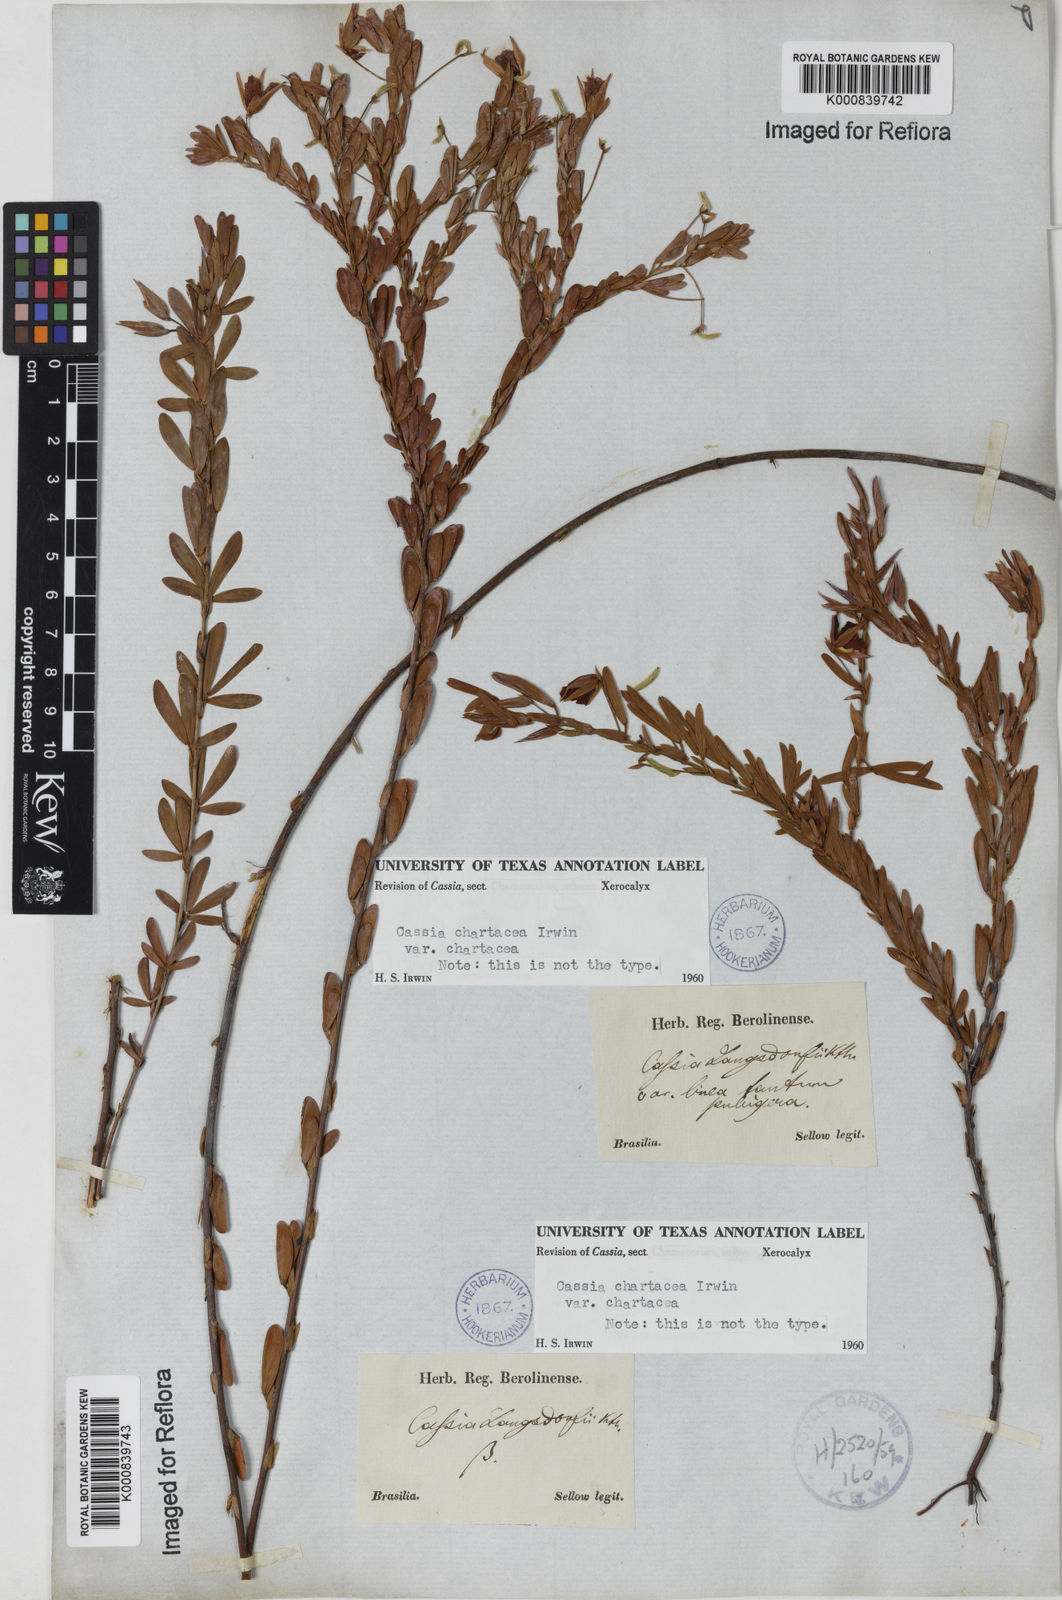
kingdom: Plantae
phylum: Tracheophyta
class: Magnoliopsida
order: Fabales
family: Fabaceae
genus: Chamaecrista
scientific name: Chamaecrista langsdorffii
